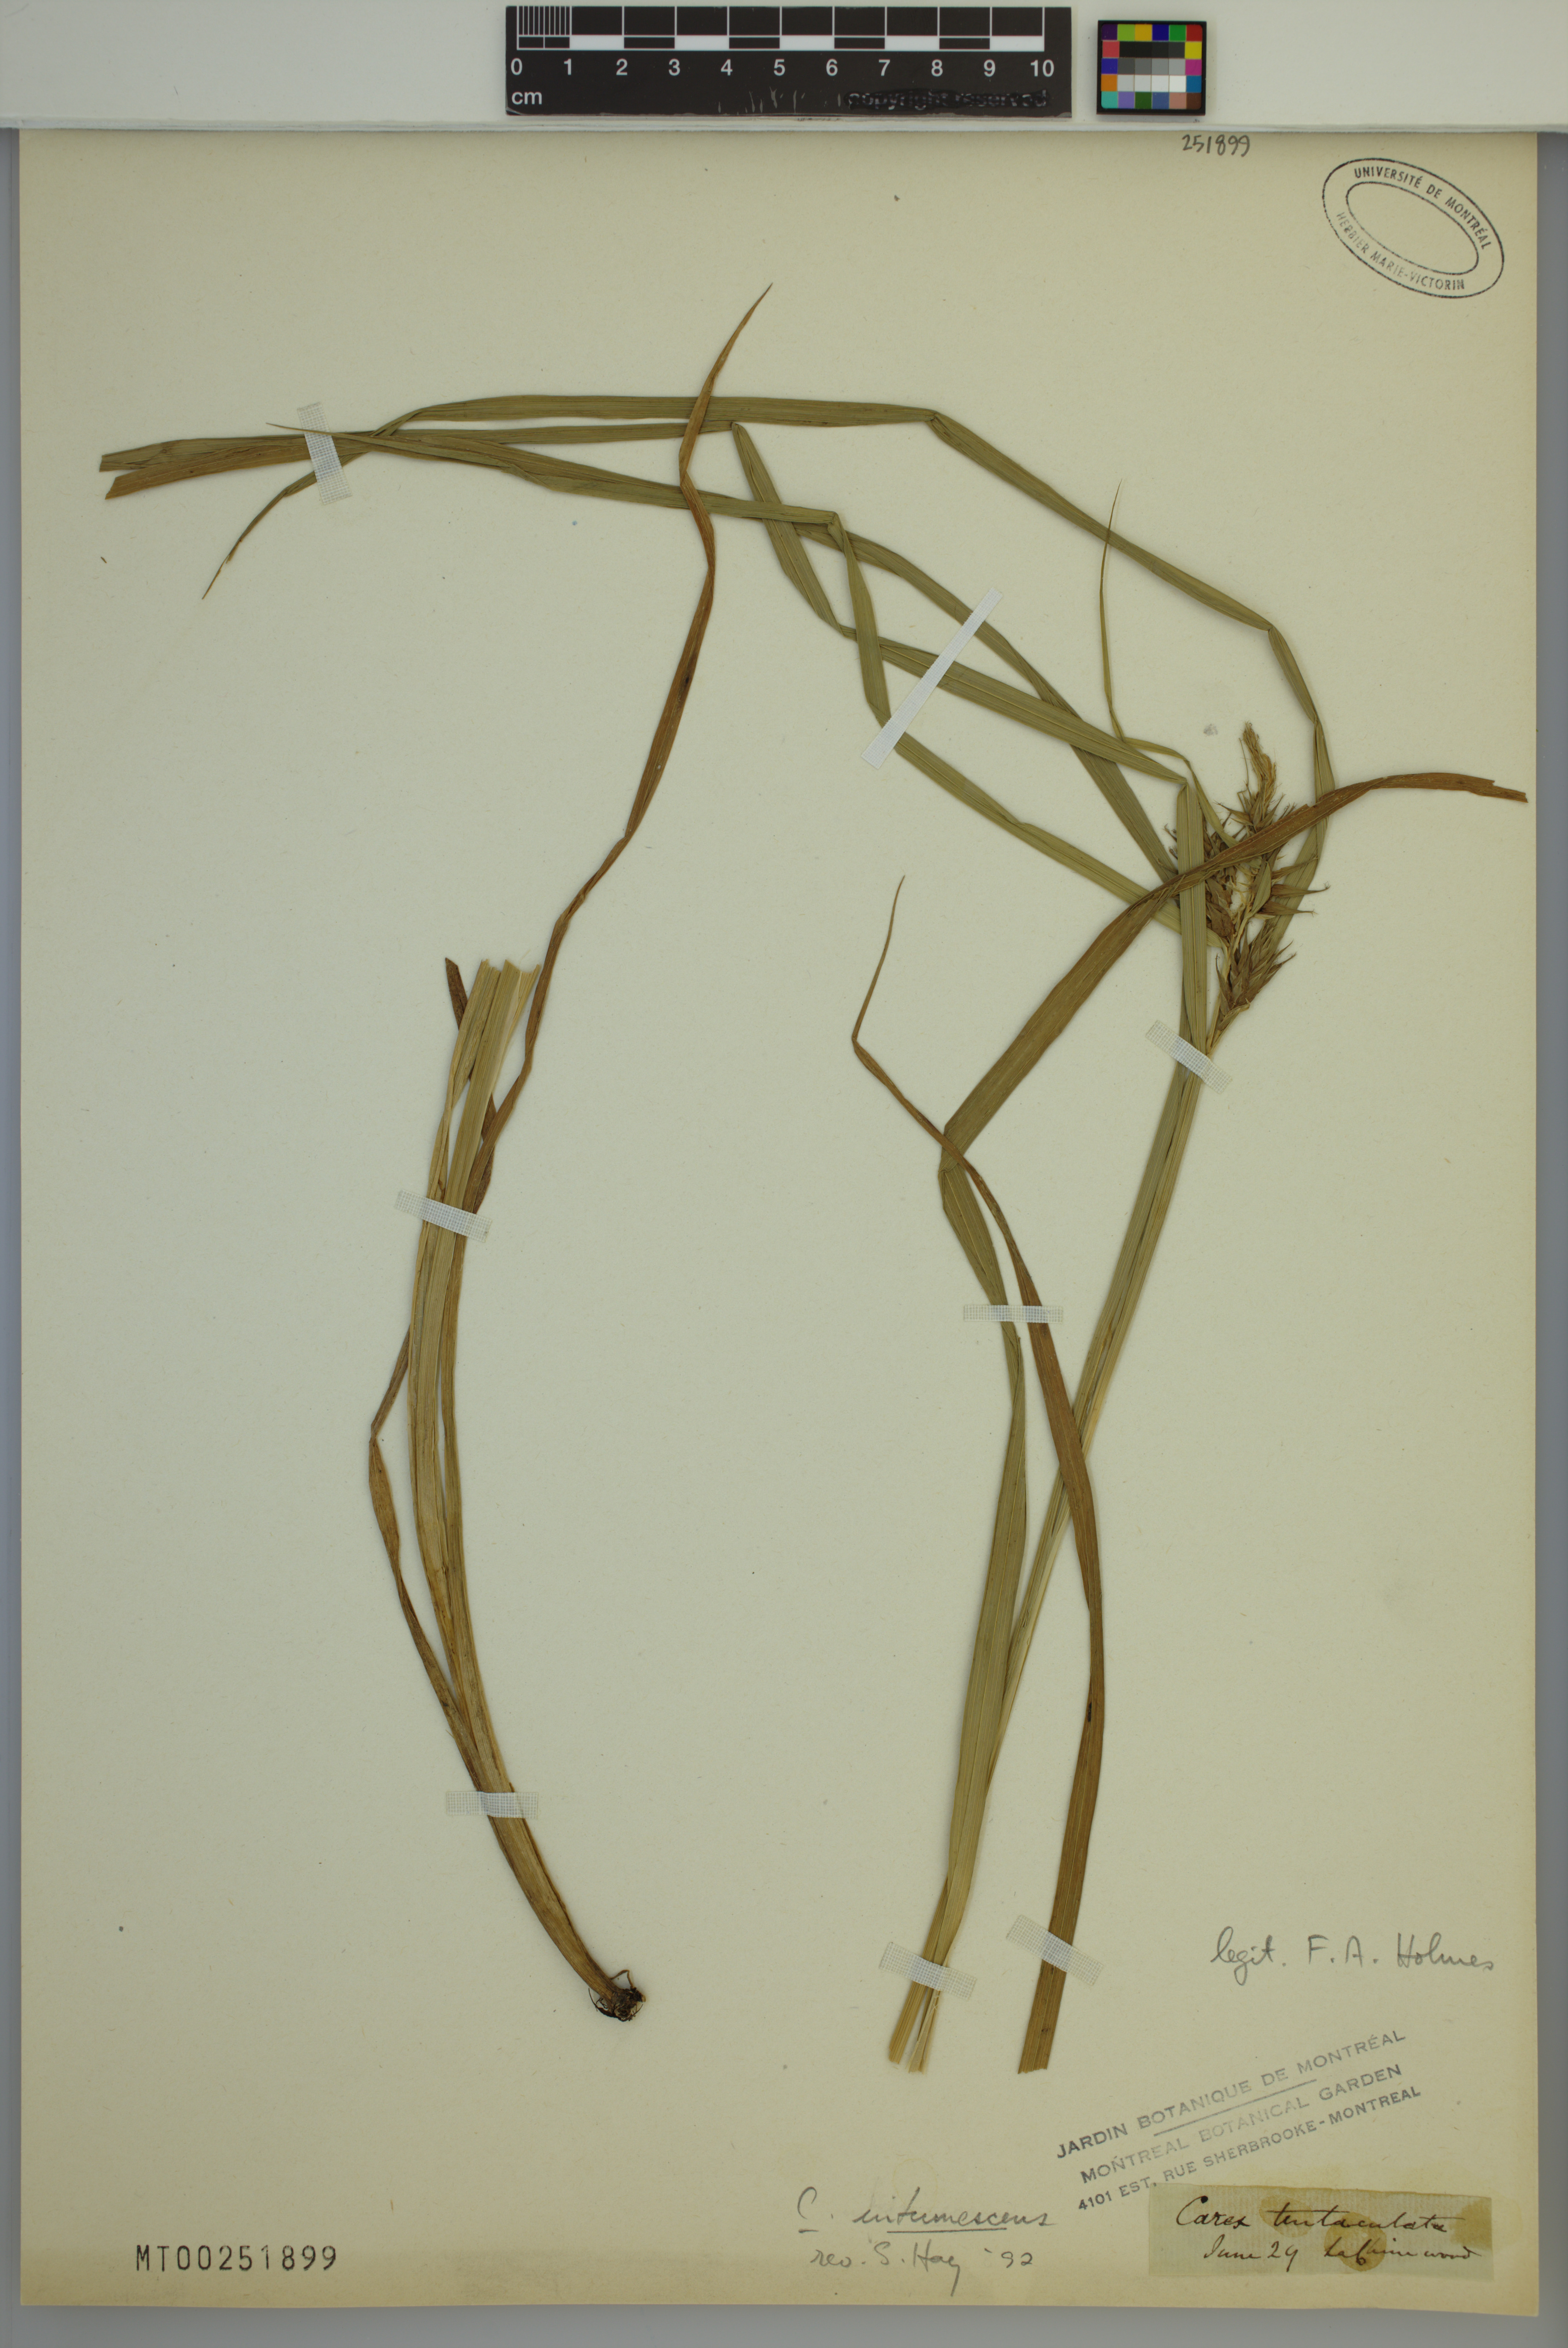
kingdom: Plantae
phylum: Tracheophyta
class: Liliopsida
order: Poales
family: Cyperaceae
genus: Carex
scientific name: Carex intumescens
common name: Greater bladder sedge
